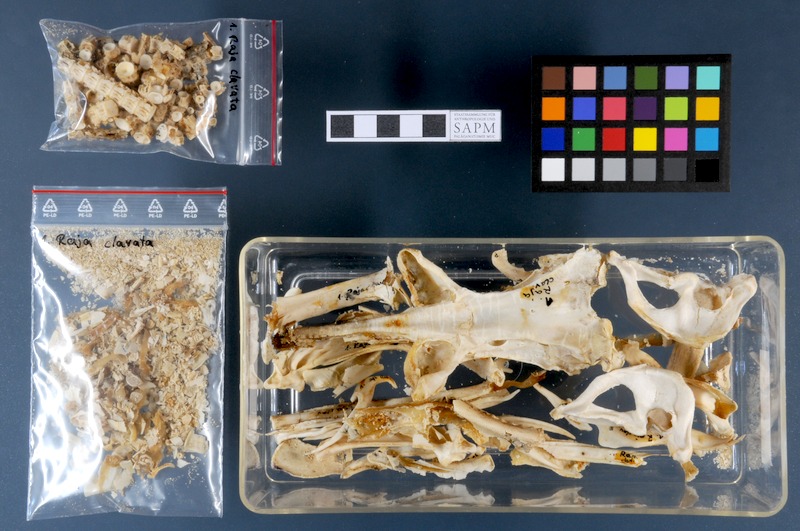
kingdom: Animalia
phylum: Chordata
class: Elasmobranchii
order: Rajiformes
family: Rajidae
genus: Raja
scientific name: Raja clavata
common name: Thornback ray
